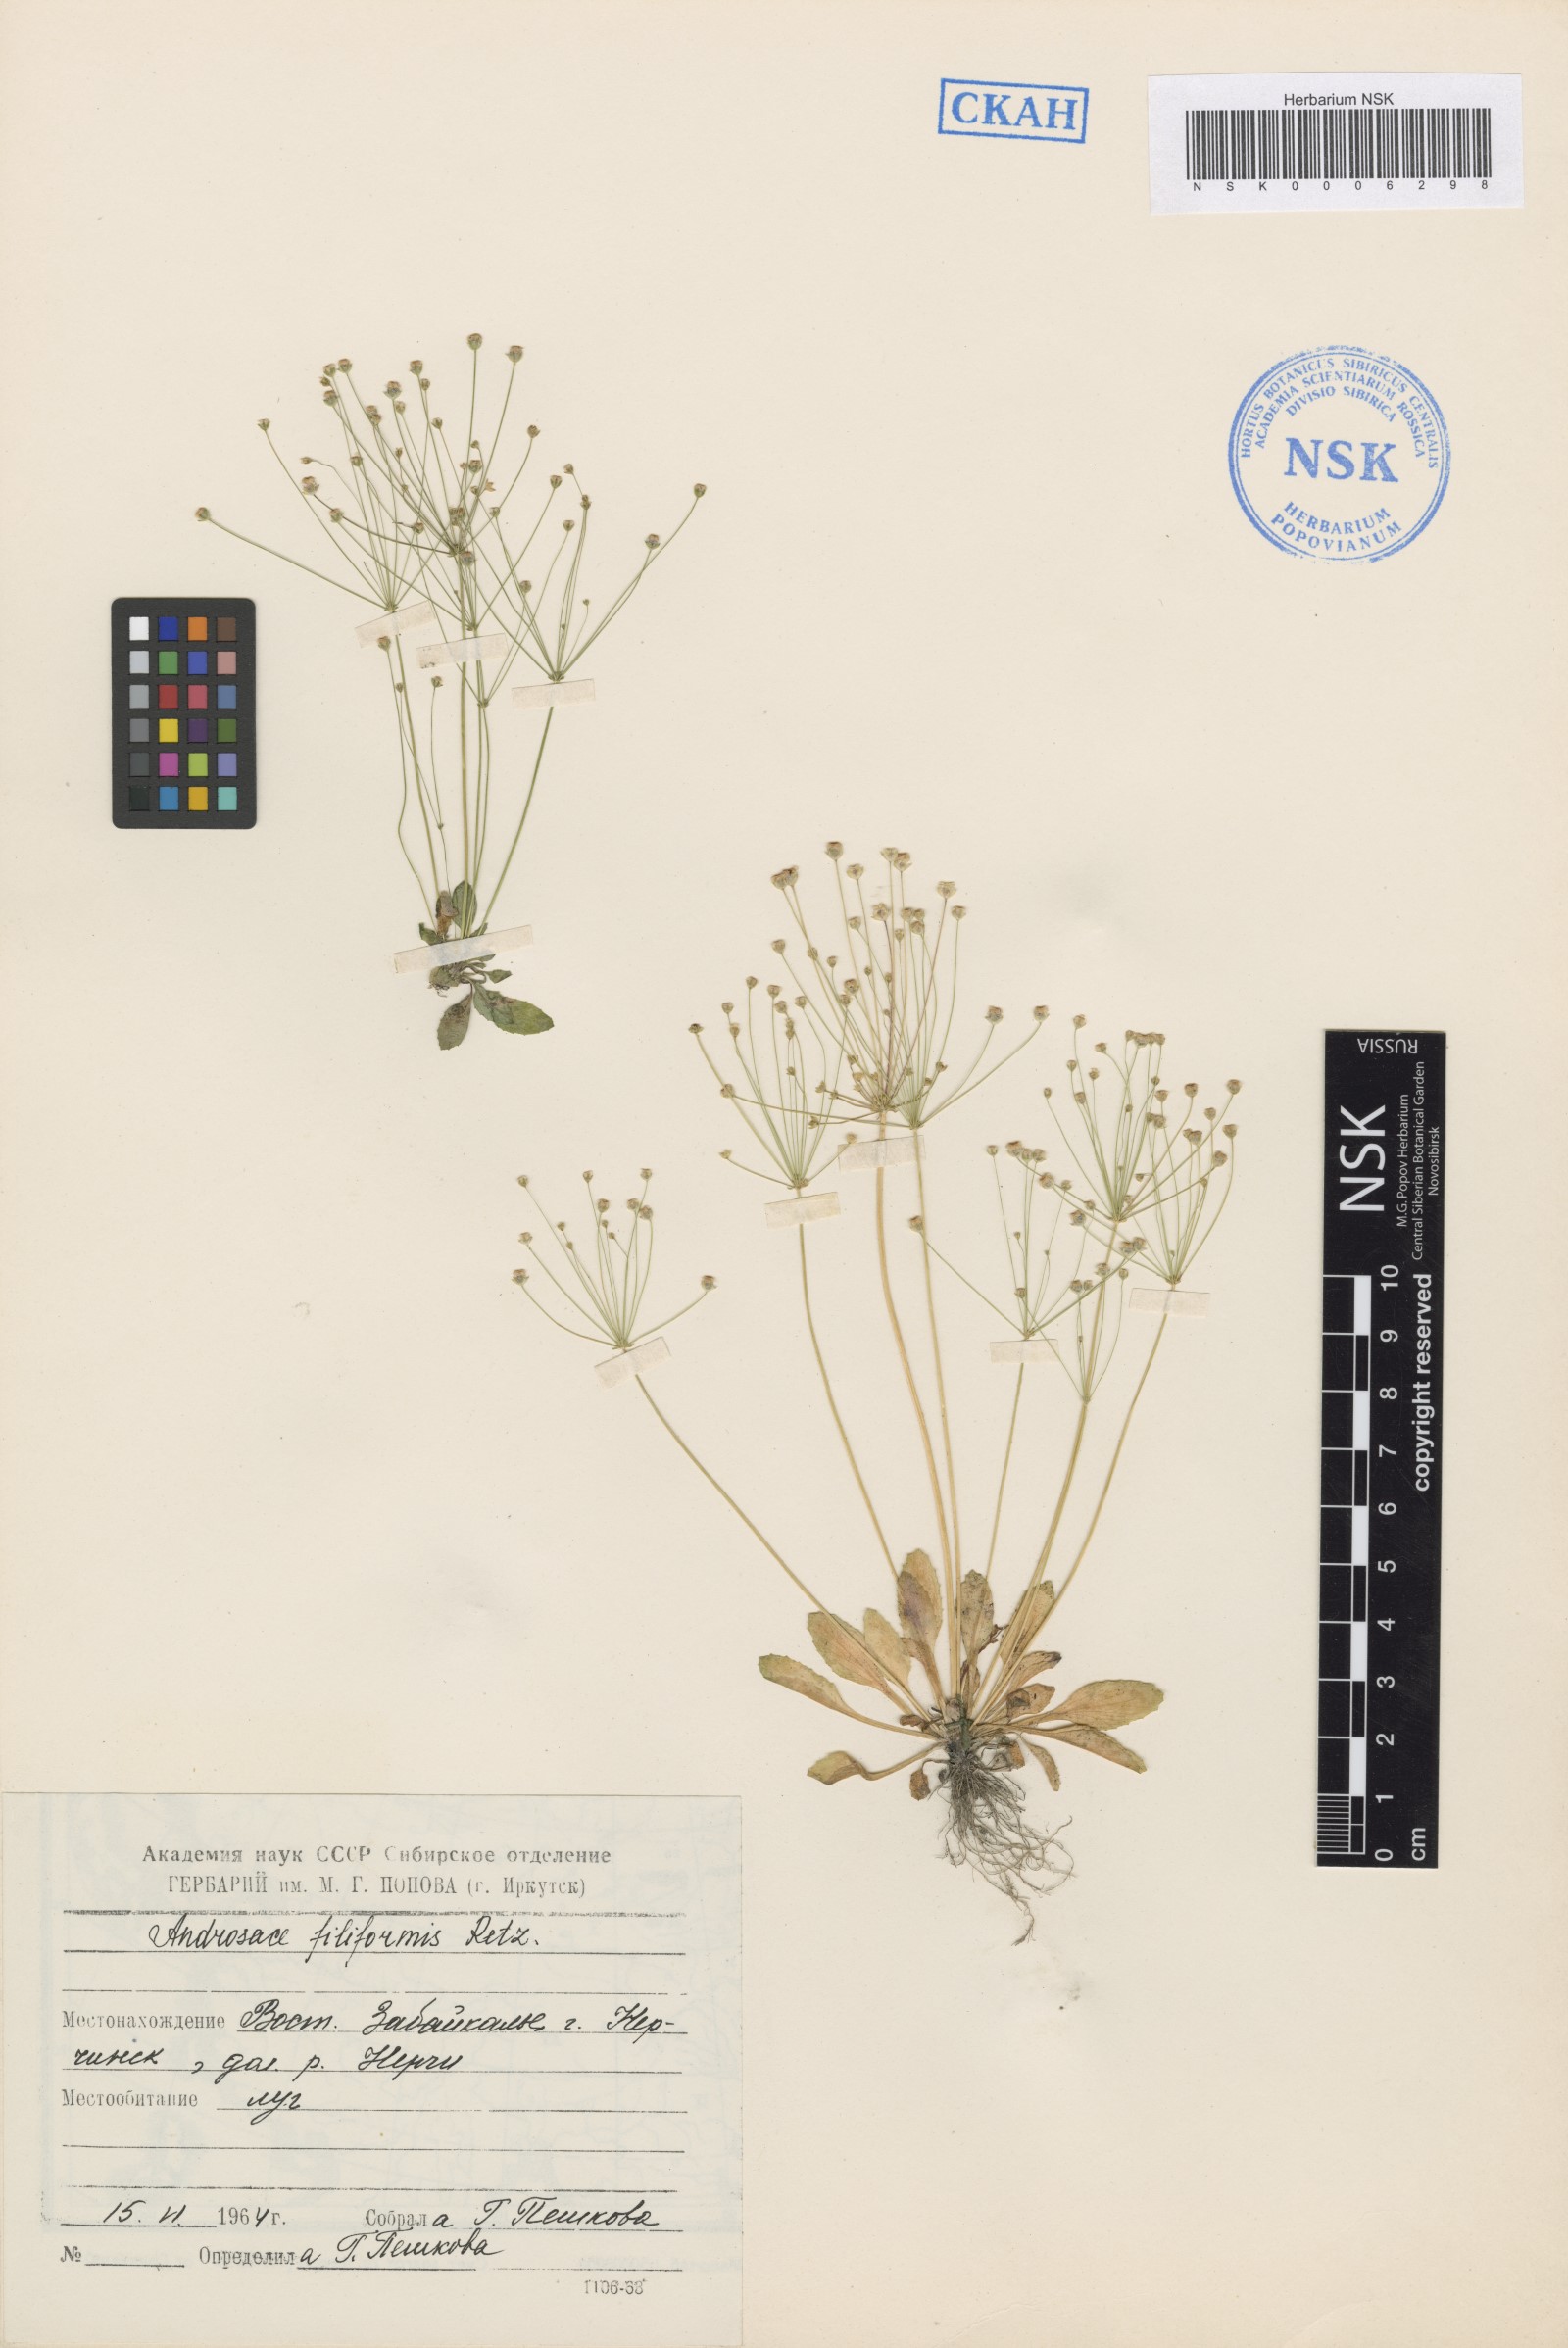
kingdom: Plantae
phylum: Tracheophyta
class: Magnoliopsida
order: Ericales
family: Primulaceae
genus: Androsace
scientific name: Androsace filiformis
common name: Filiform rock jasmine
